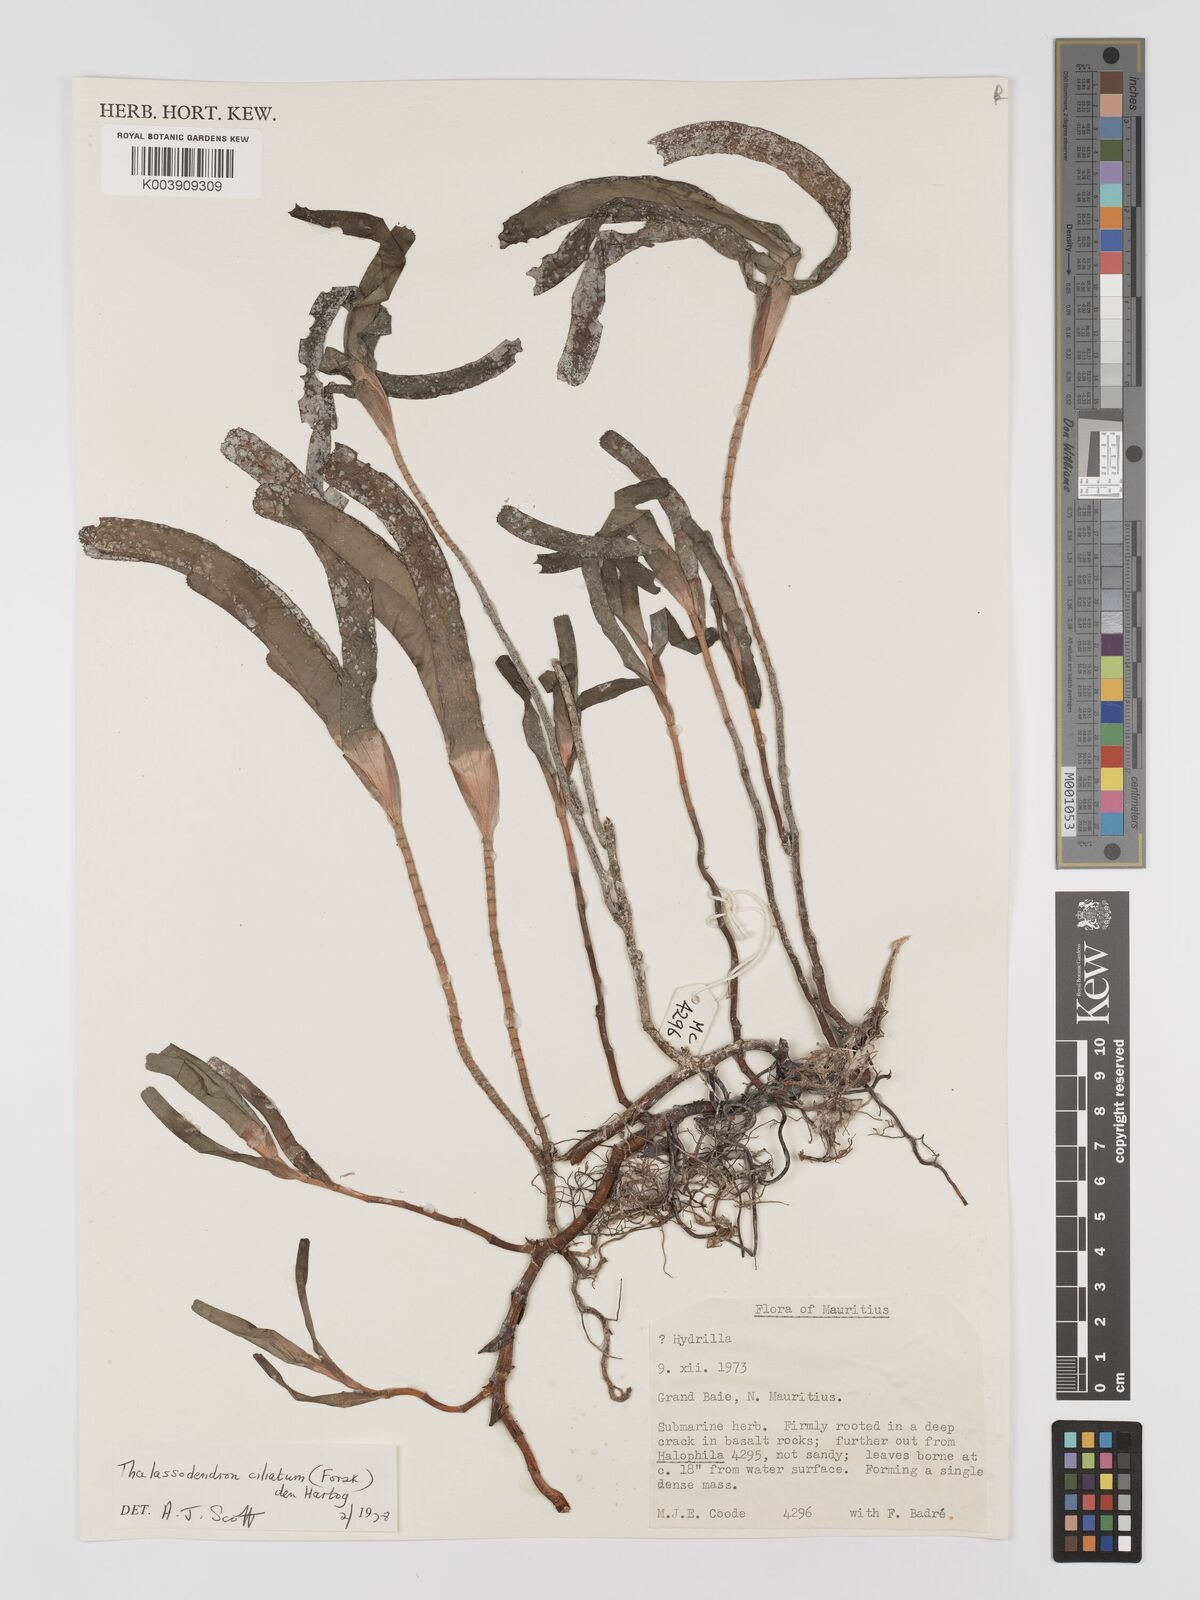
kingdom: Plantae
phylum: Tracheophyta
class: Liliopsida
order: Alismatales
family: Cymodoceaceae
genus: Thalassodendron
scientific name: Thalassodendron ciliatum
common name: Species code: tc
